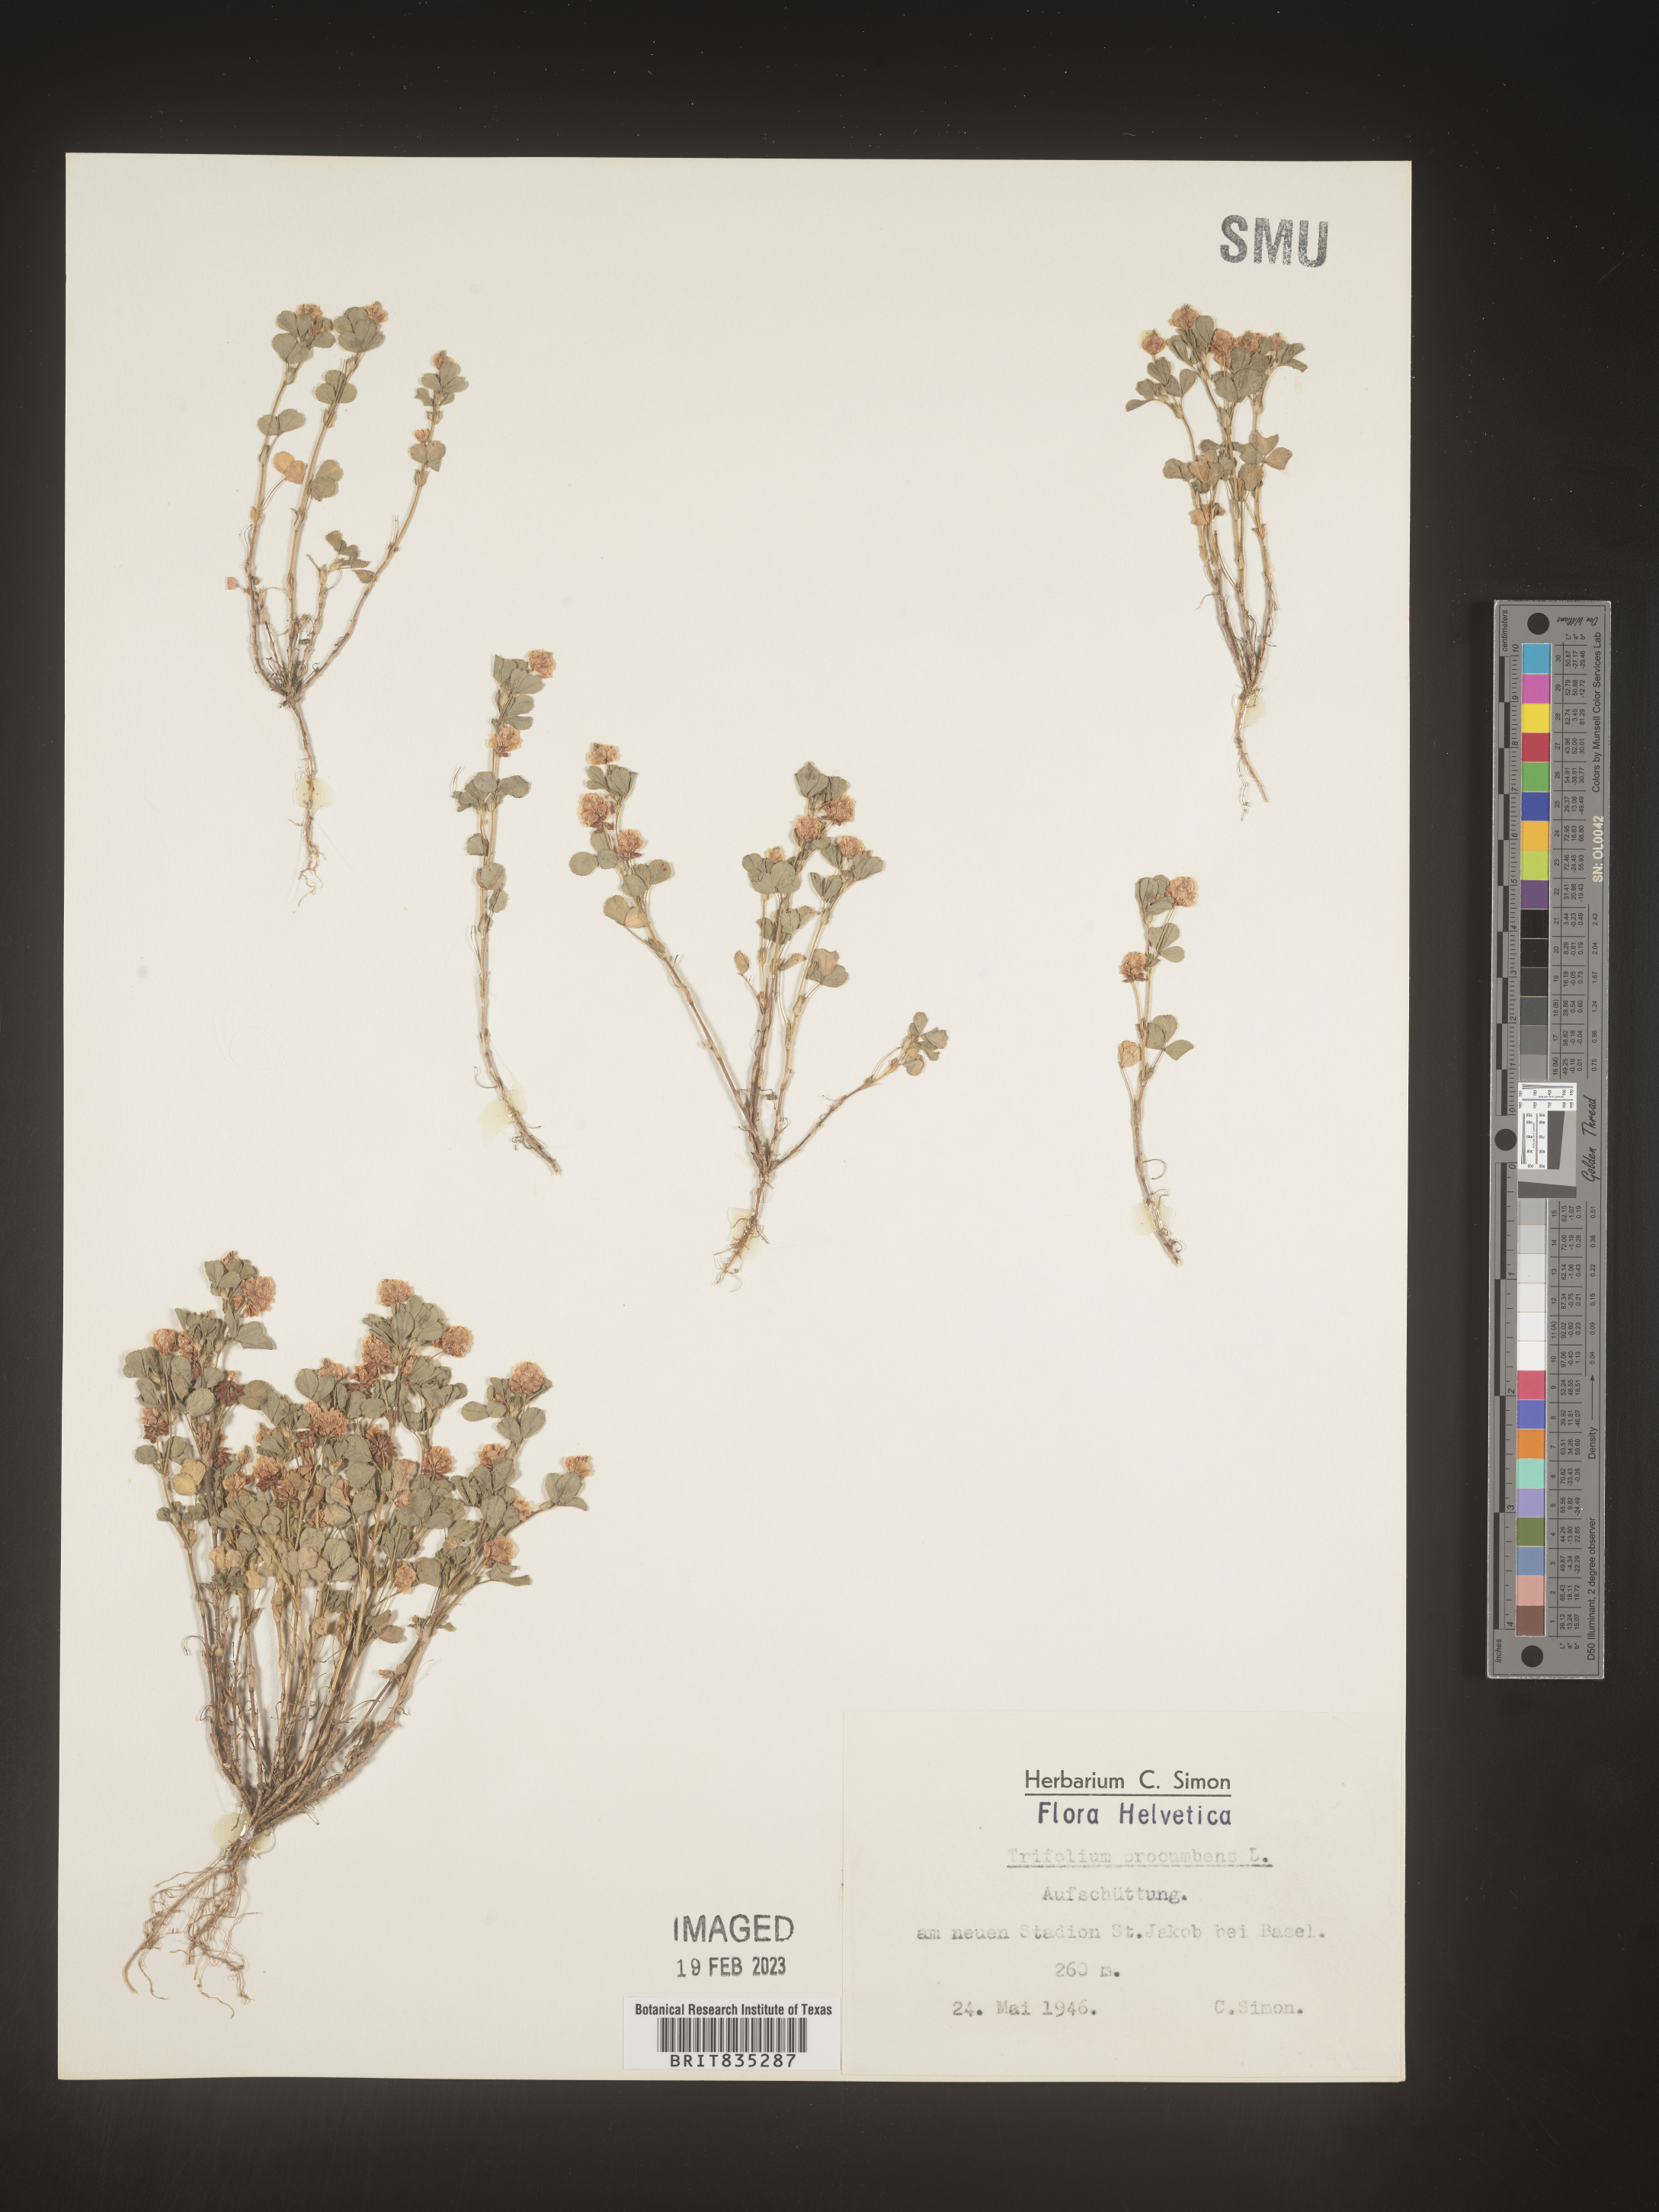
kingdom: Plantae
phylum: Tracheophyta
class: Magnoliopsida
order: Fabales
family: Fabaceae
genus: Trifolium
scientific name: Trifolium
